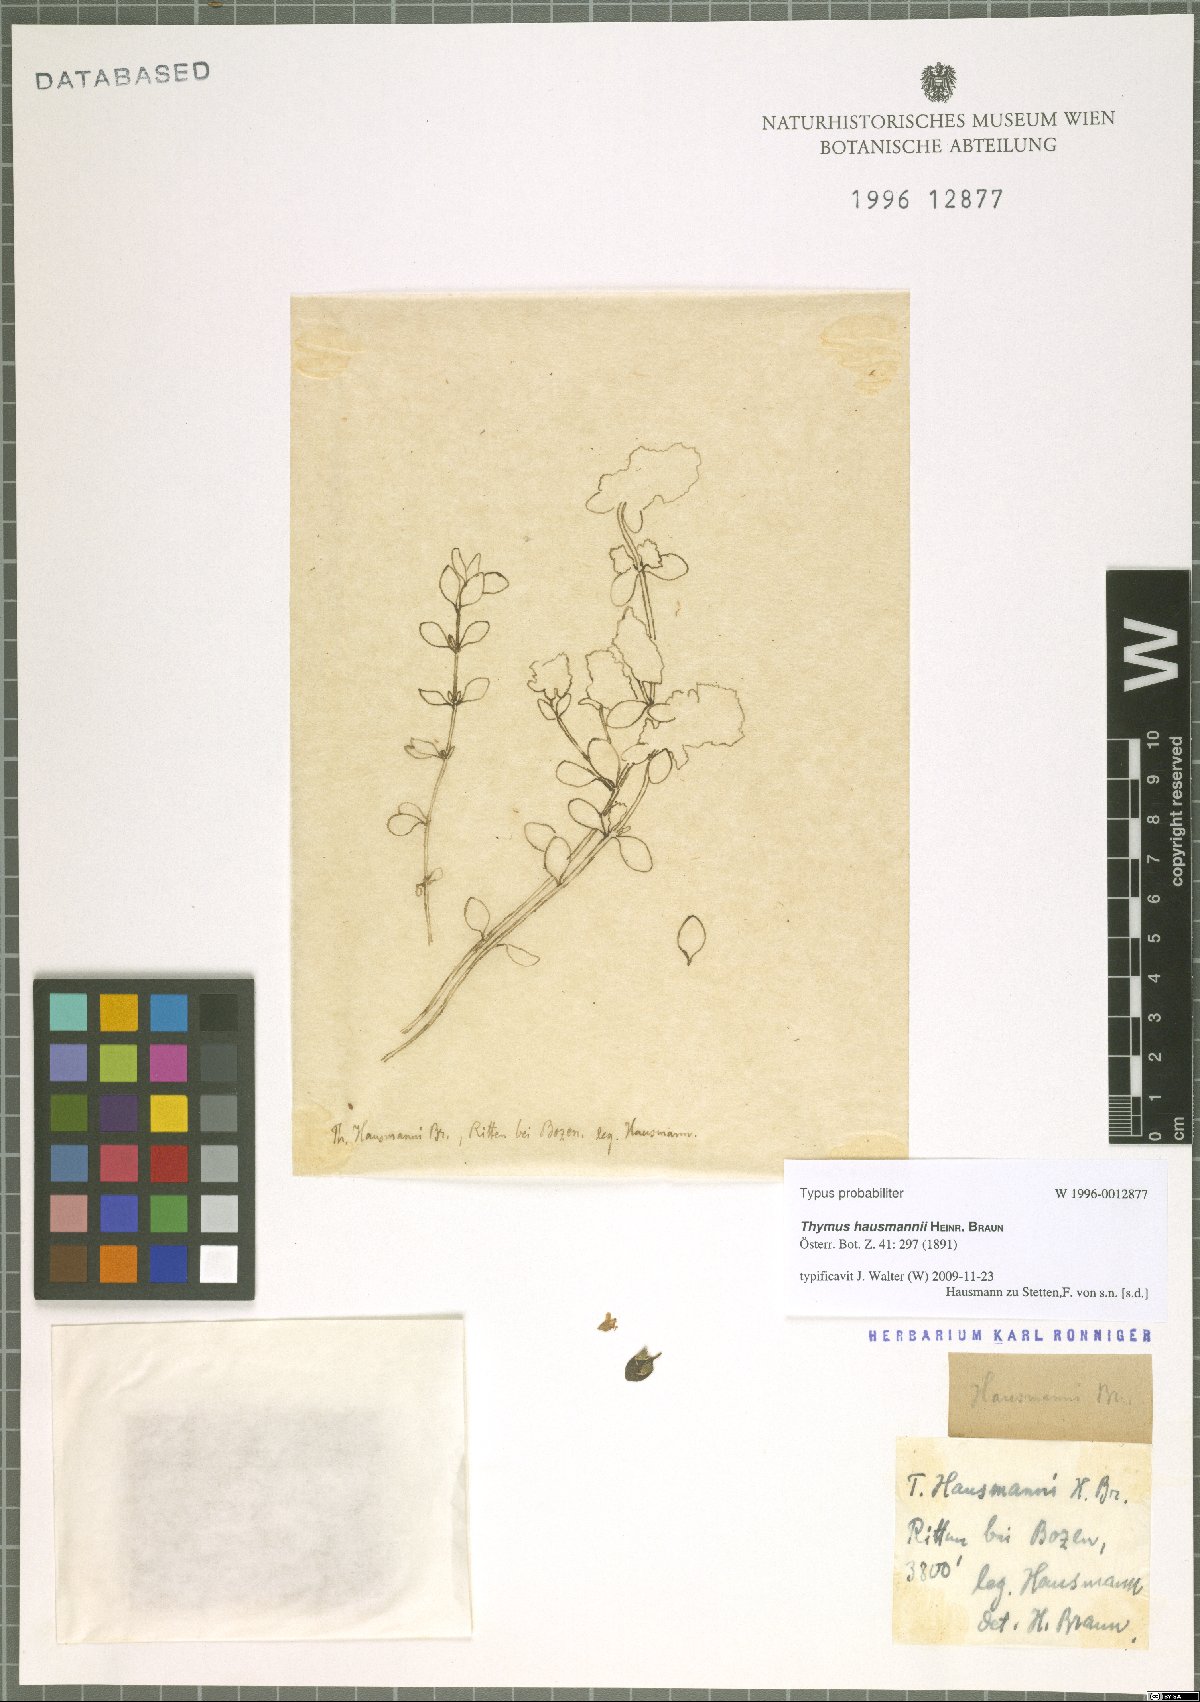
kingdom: Plantae
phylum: Tracheophyta
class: Magnoliopsida
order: Lamiales
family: Lamiaceae
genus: Thymus
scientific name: Thymus serpyllum
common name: Breckland thyme
